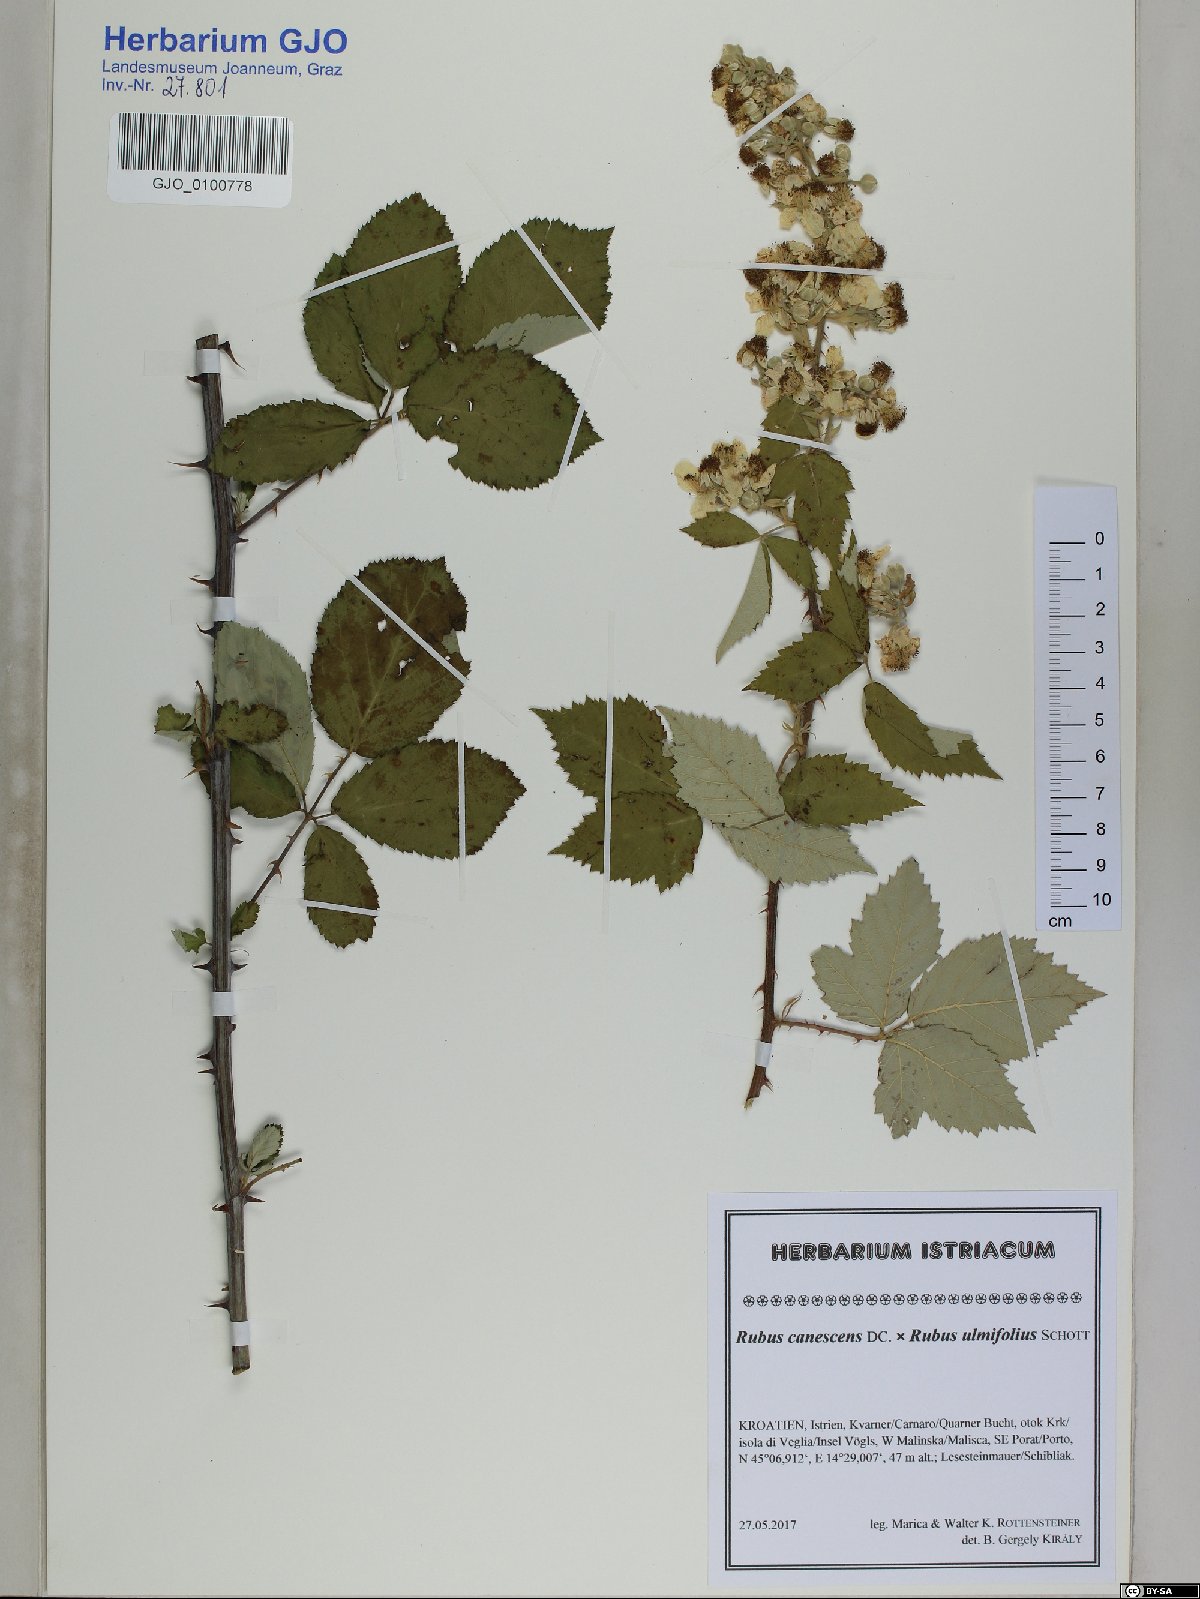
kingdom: Plantae
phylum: Tracheophyta
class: Magnoliopsida
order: Rosales
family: Rosaceae
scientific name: Rosaceae
